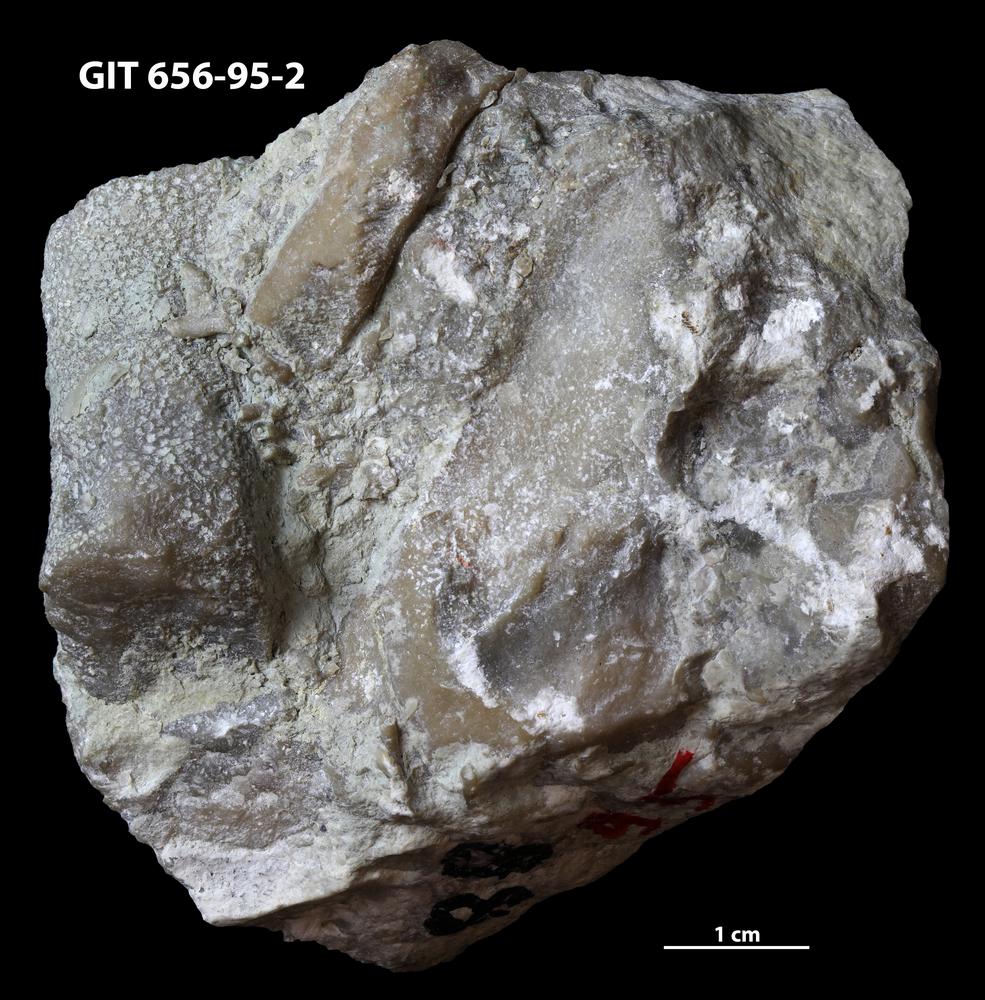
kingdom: Animalia
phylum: Cnidaria
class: Anthozoa
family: Theciidae
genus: Laceripora
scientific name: Laceripora
